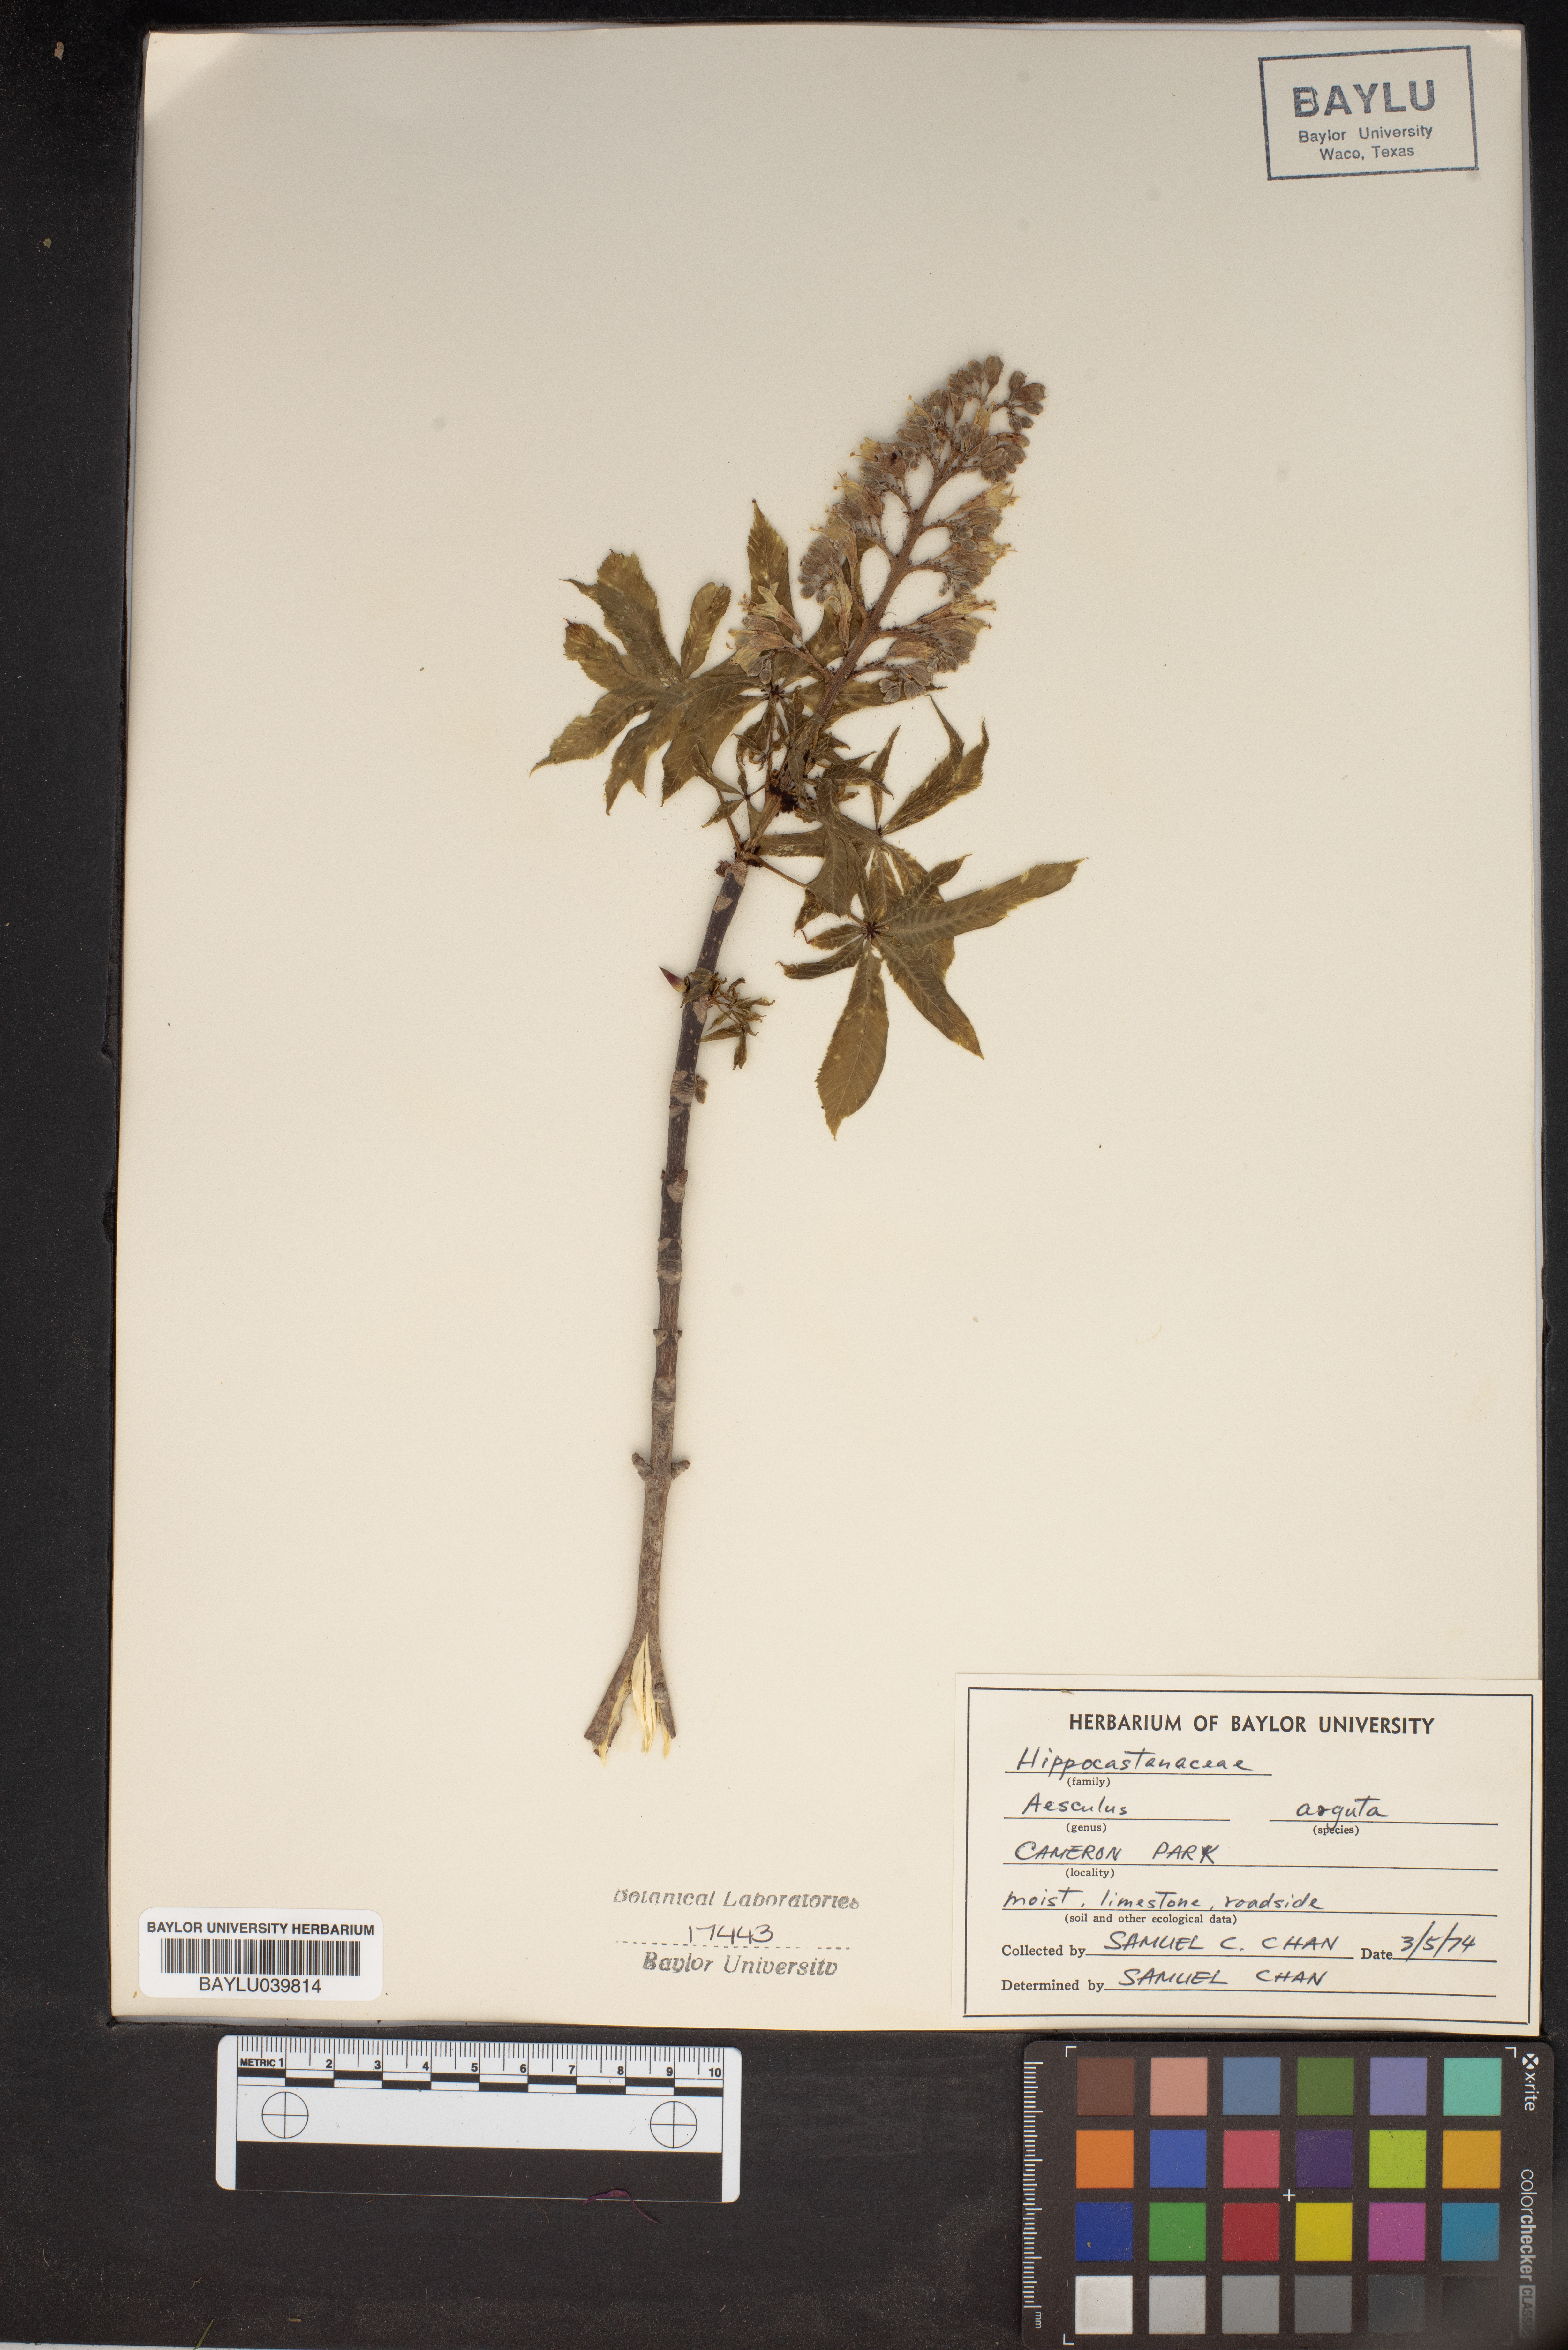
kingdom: Plantae
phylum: Tracheophyta
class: Magnoliopsida
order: Sapindales
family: Sapindaceae
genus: Aesculus
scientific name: Aesculus glabra
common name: Ohio buckeye
